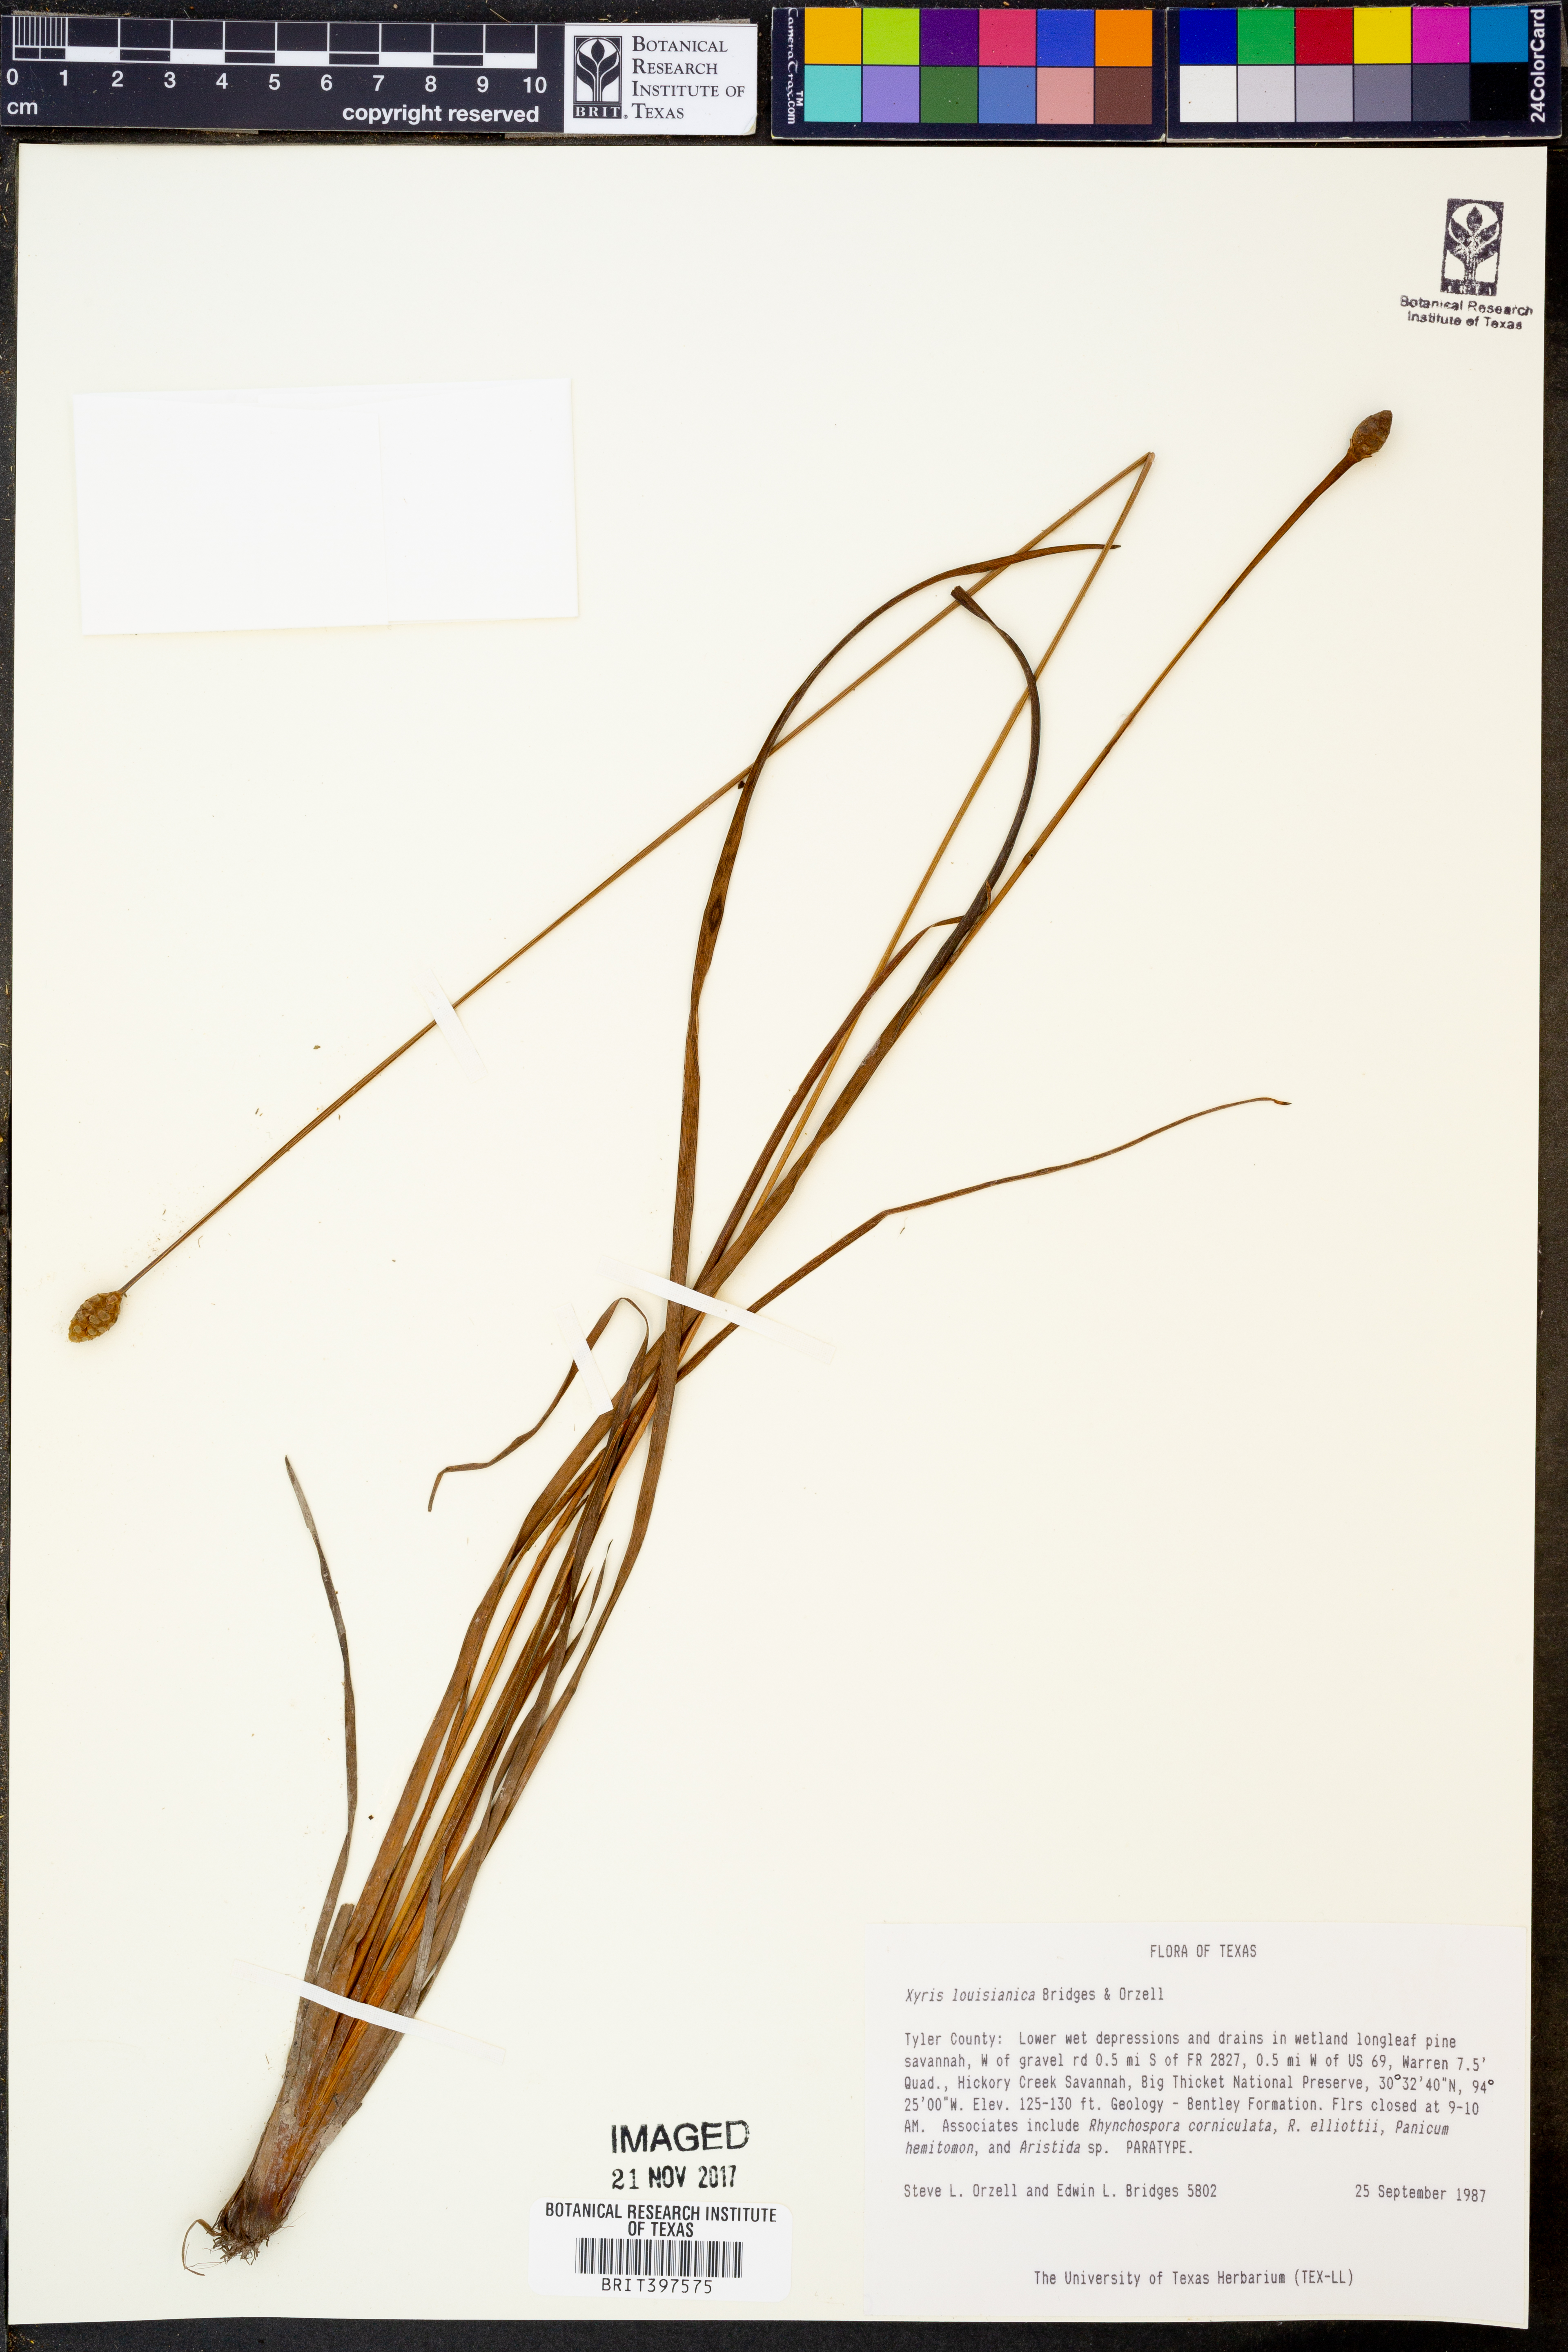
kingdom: Plantae
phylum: Tracheophyta
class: Liliopsida
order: Poales
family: Xyridaceae
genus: Xyris
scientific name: Xyris stricta
